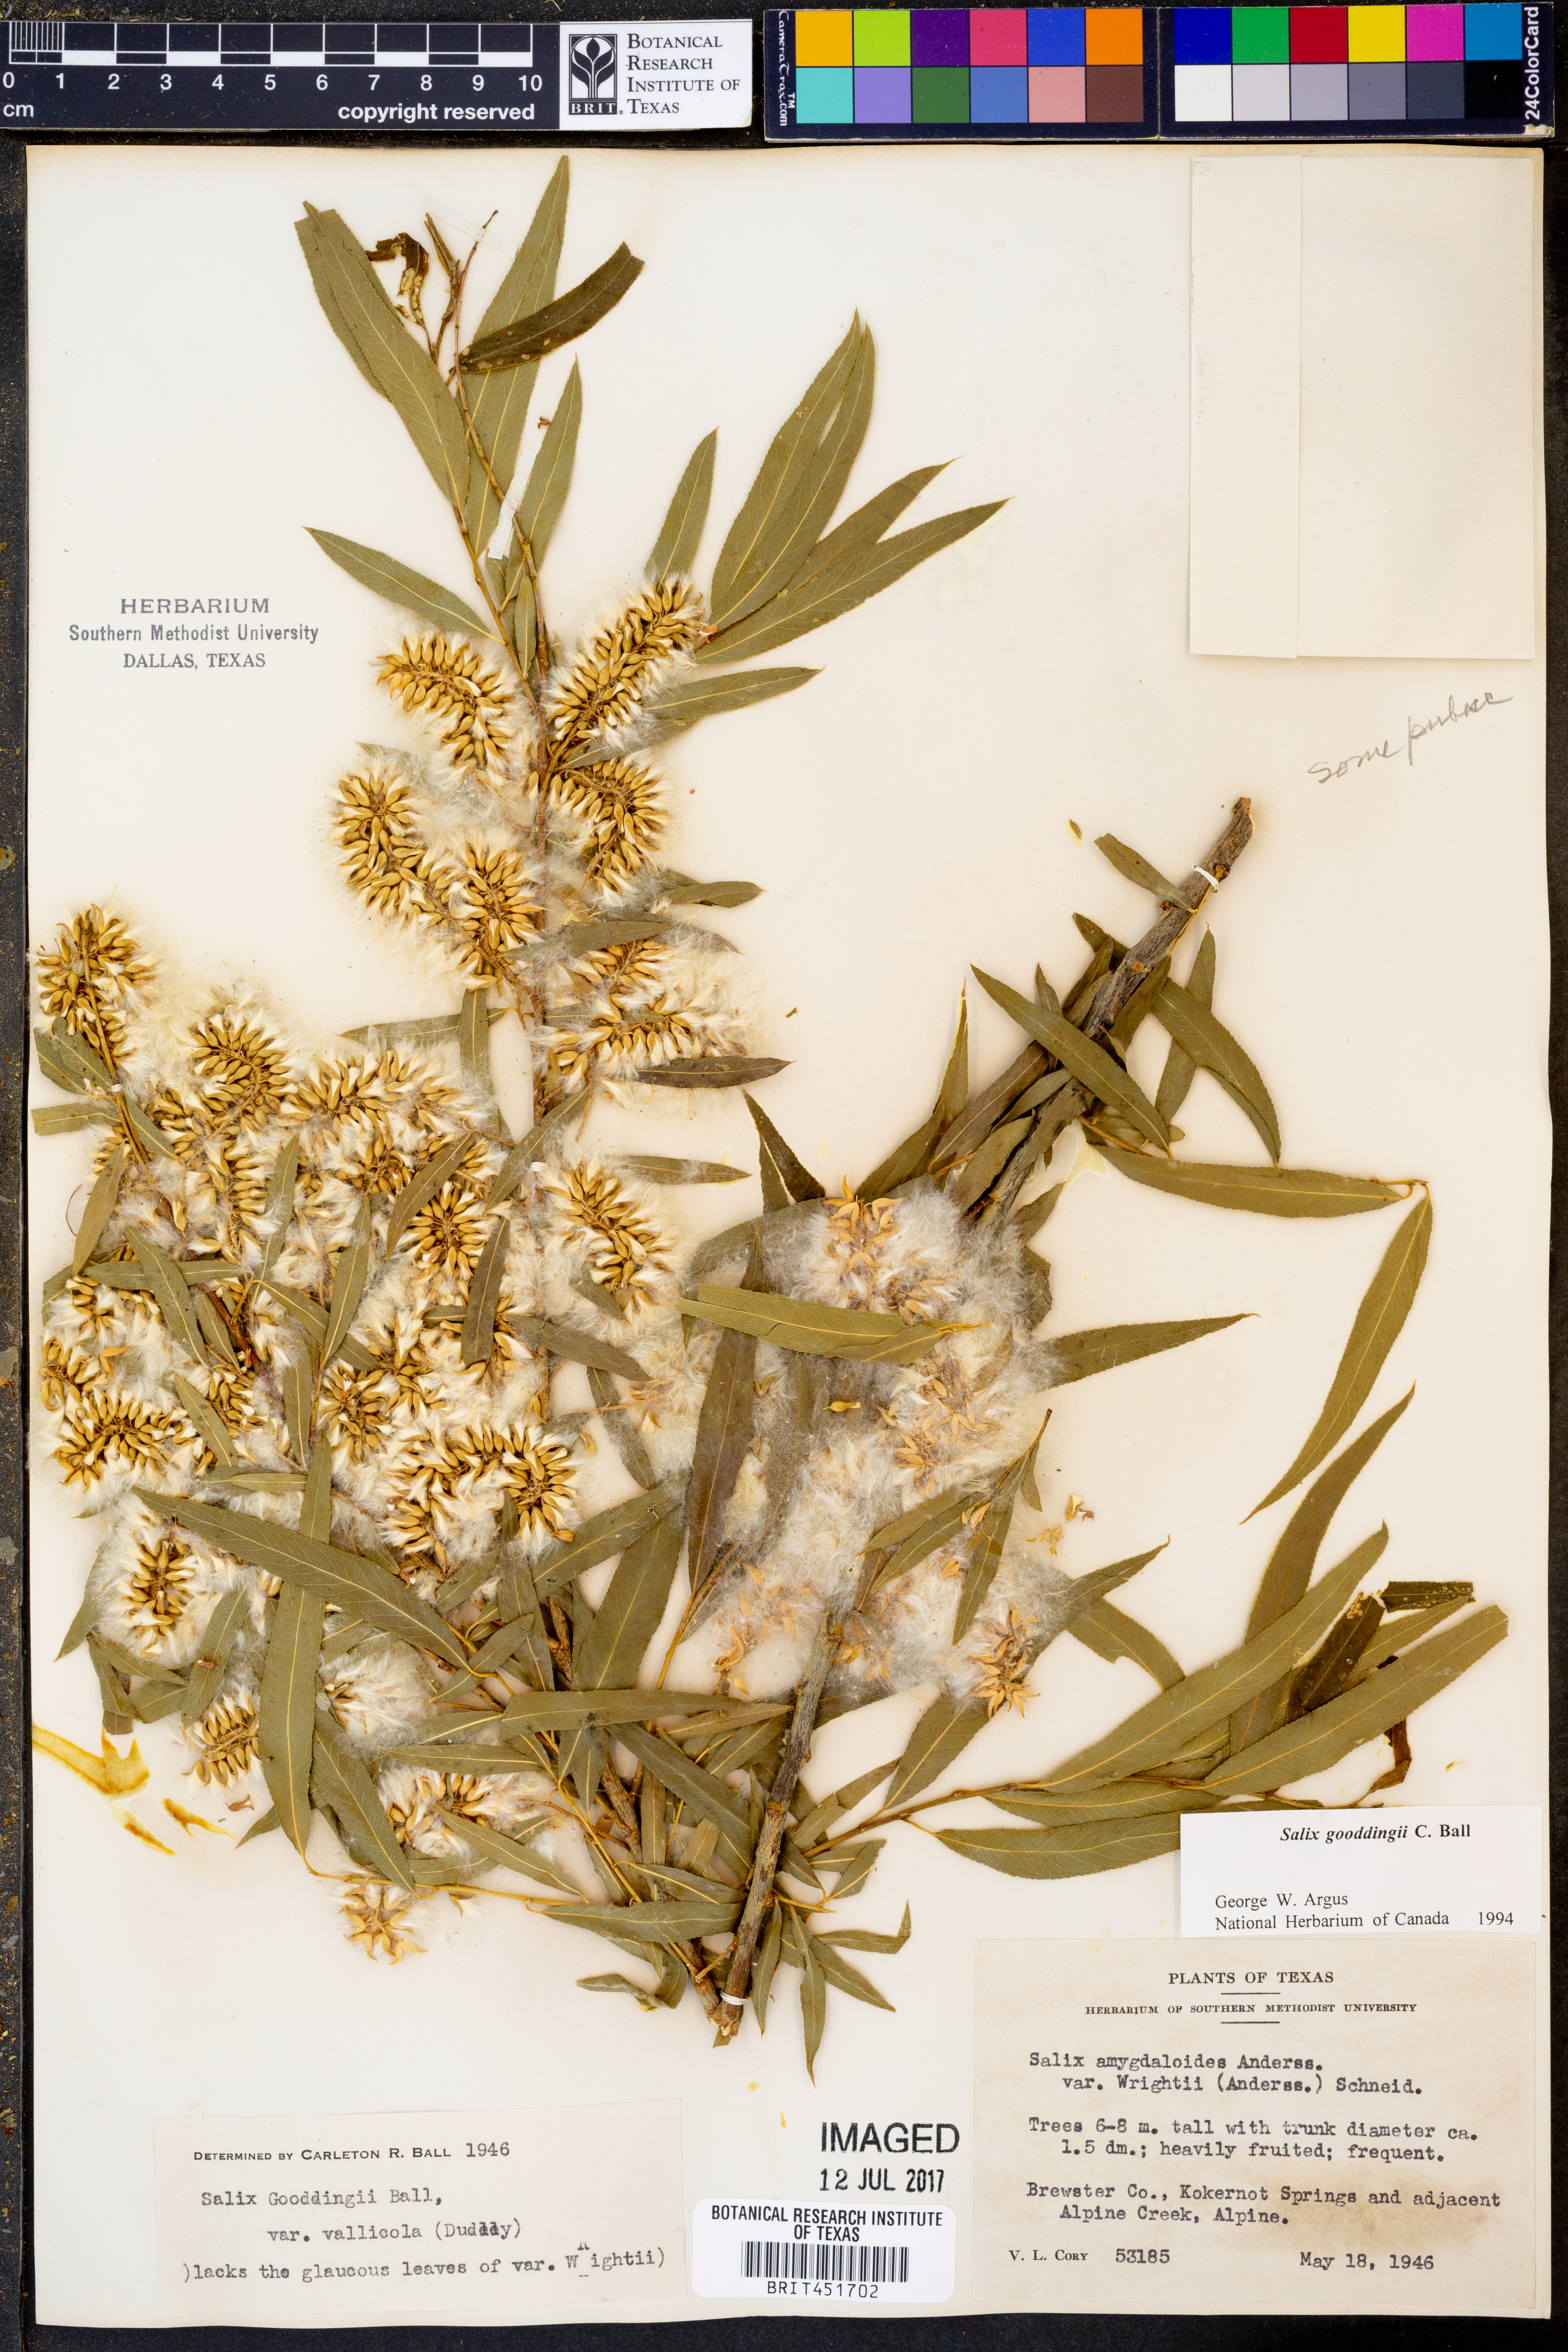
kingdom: Plantae
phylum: Tracheophyta
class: Magnoliopsida
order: Malpighiales
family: Salicaceae
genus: Salix
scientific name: Salix gooddingii
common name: Goodding's willow
